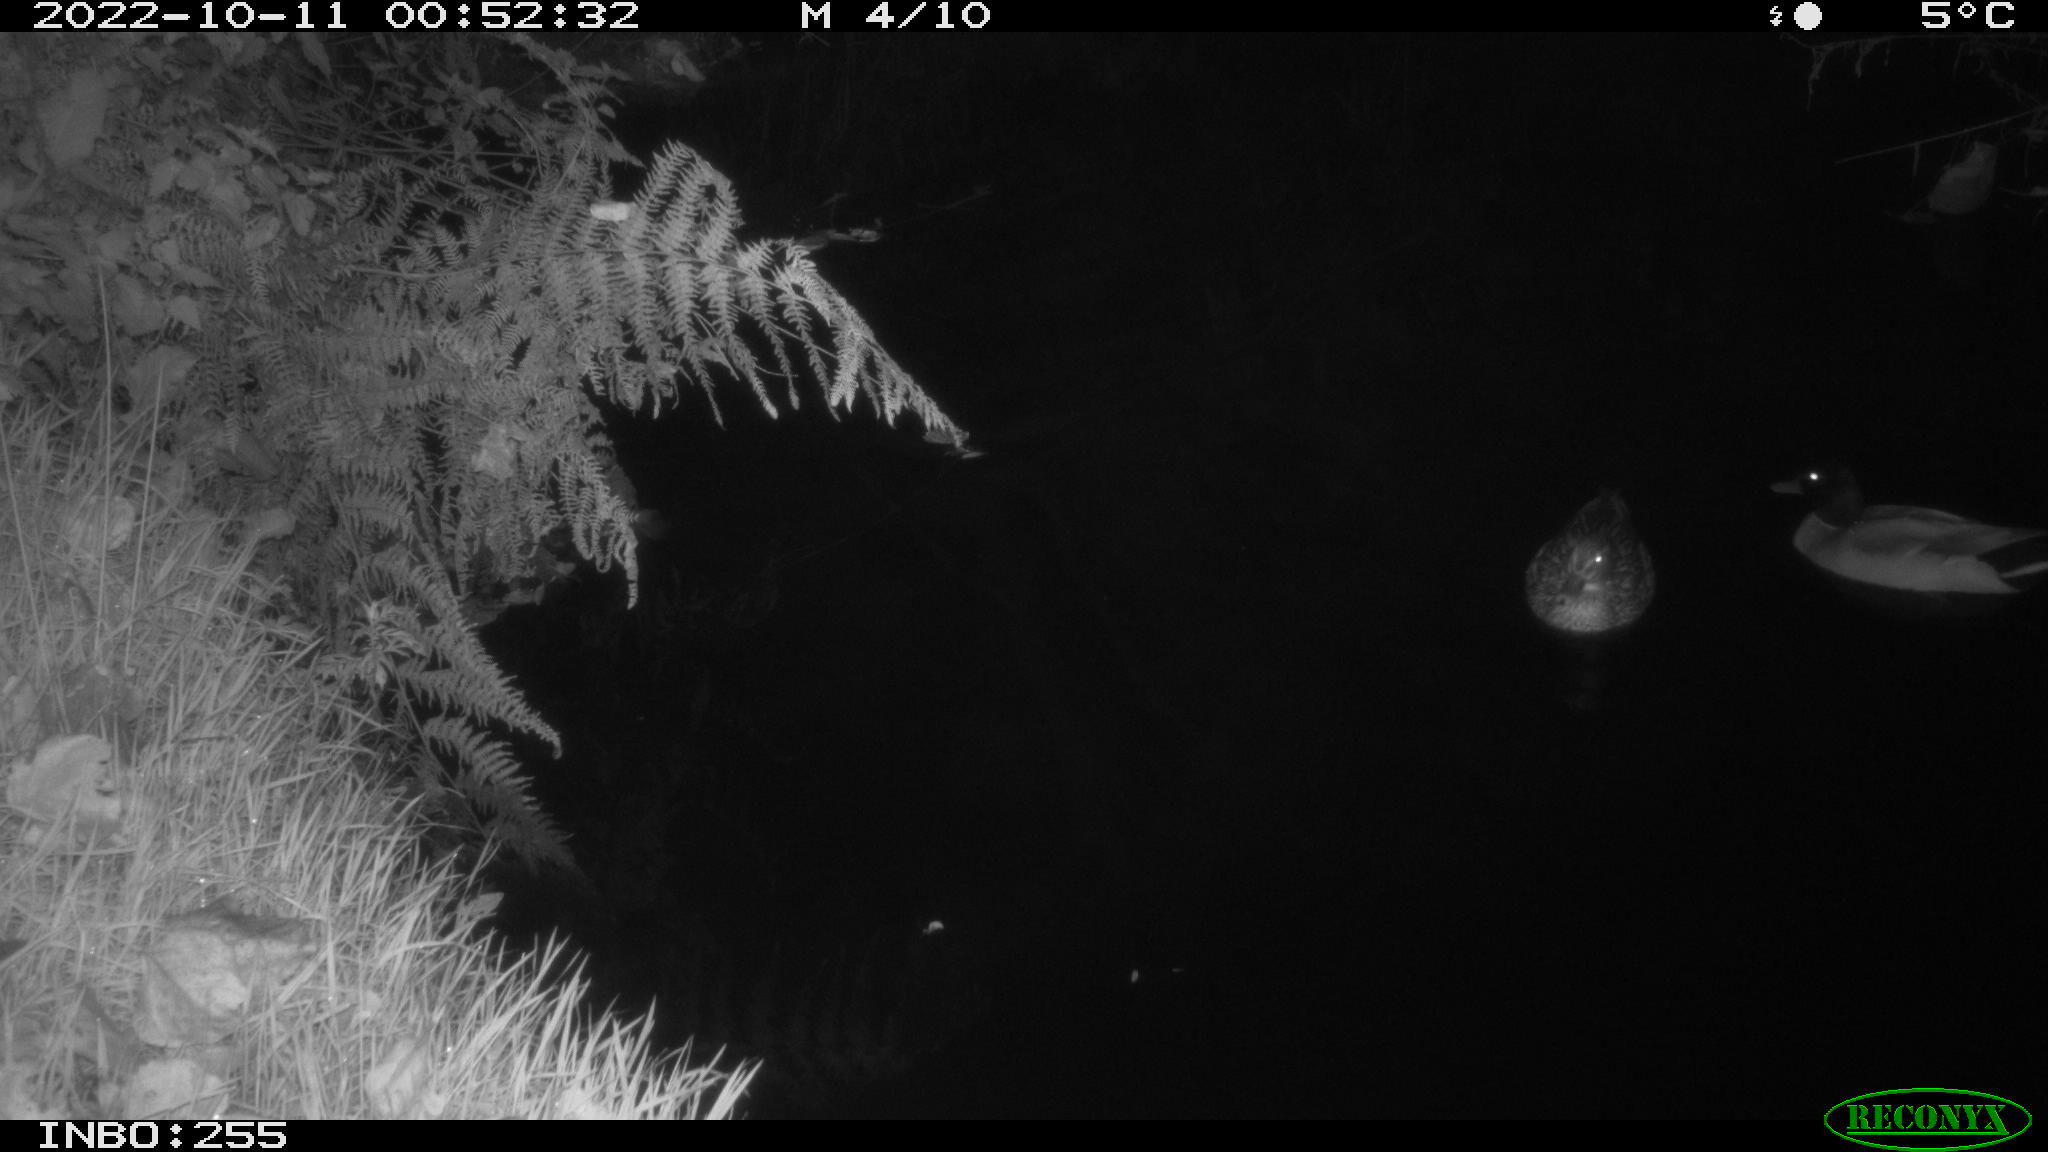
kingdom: Animalia
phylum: Chordata
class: Aves
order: Anseriformes
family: Anatidae
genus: Anas
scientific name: Anas
